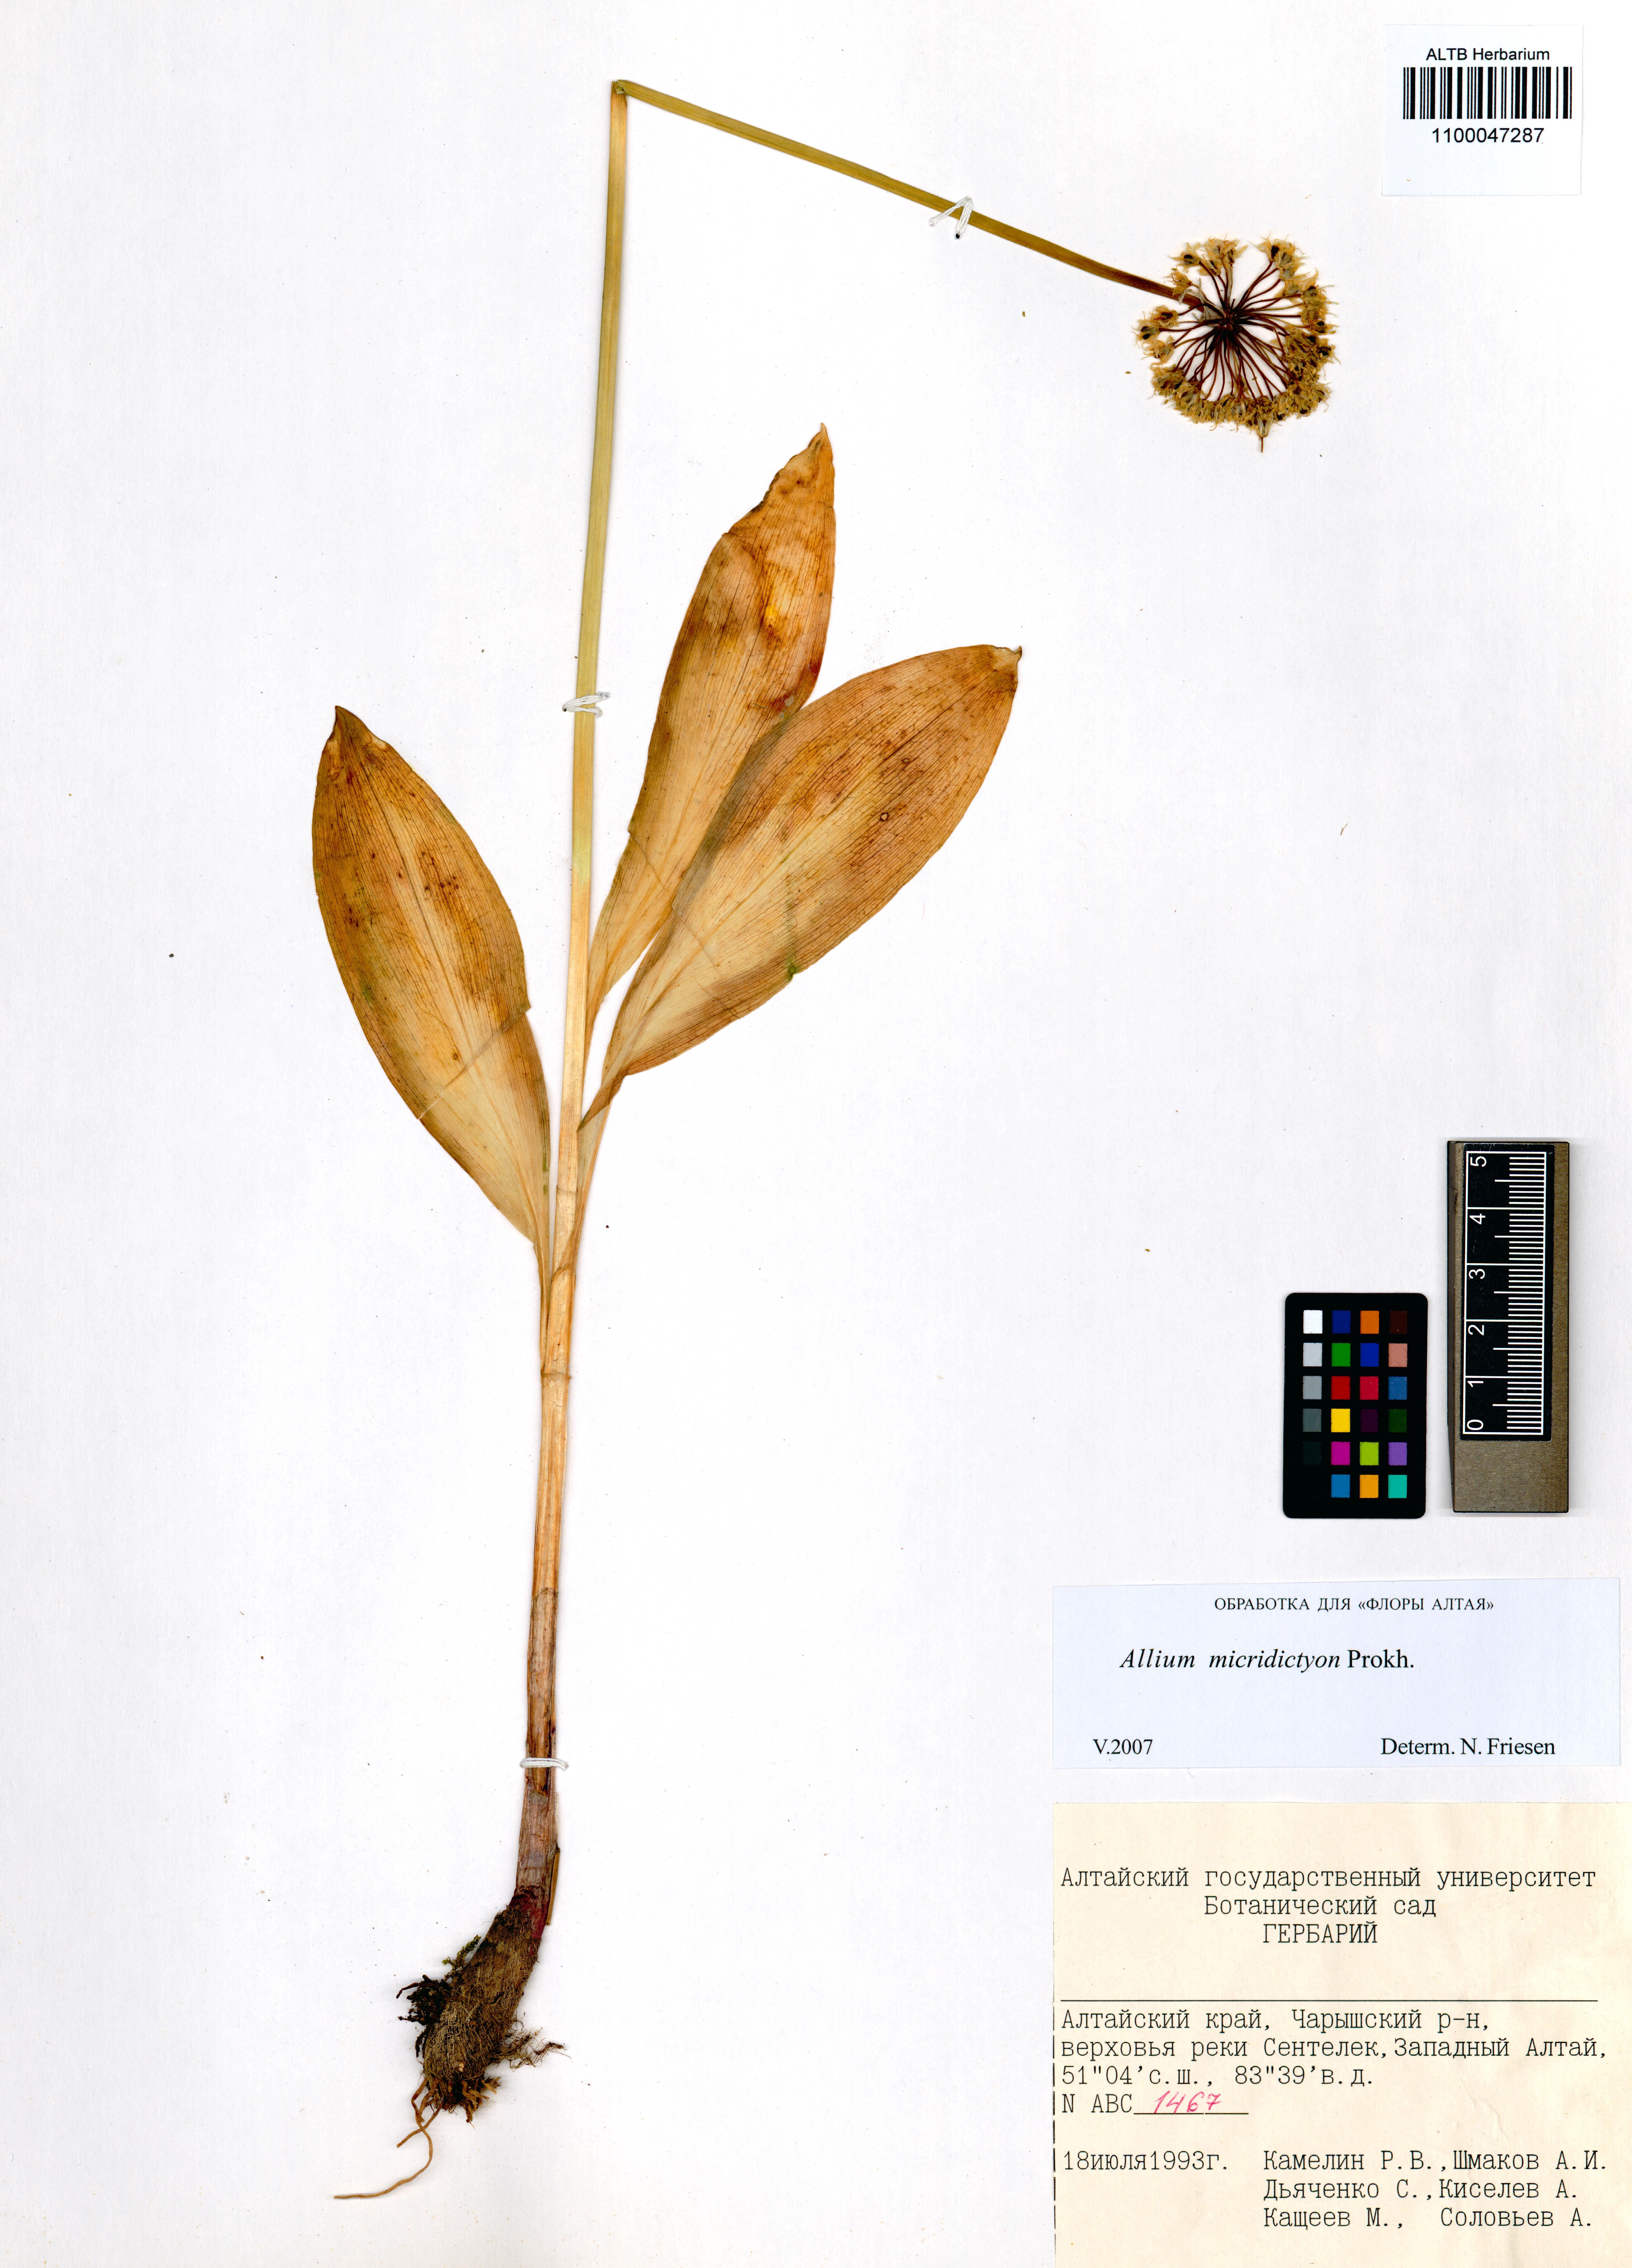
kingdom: Plantae
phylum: Tracheophyta
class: Liliopsida
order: Asparagales
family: Amaryllidaceae
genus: Allium
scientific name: Allium microdictyon
